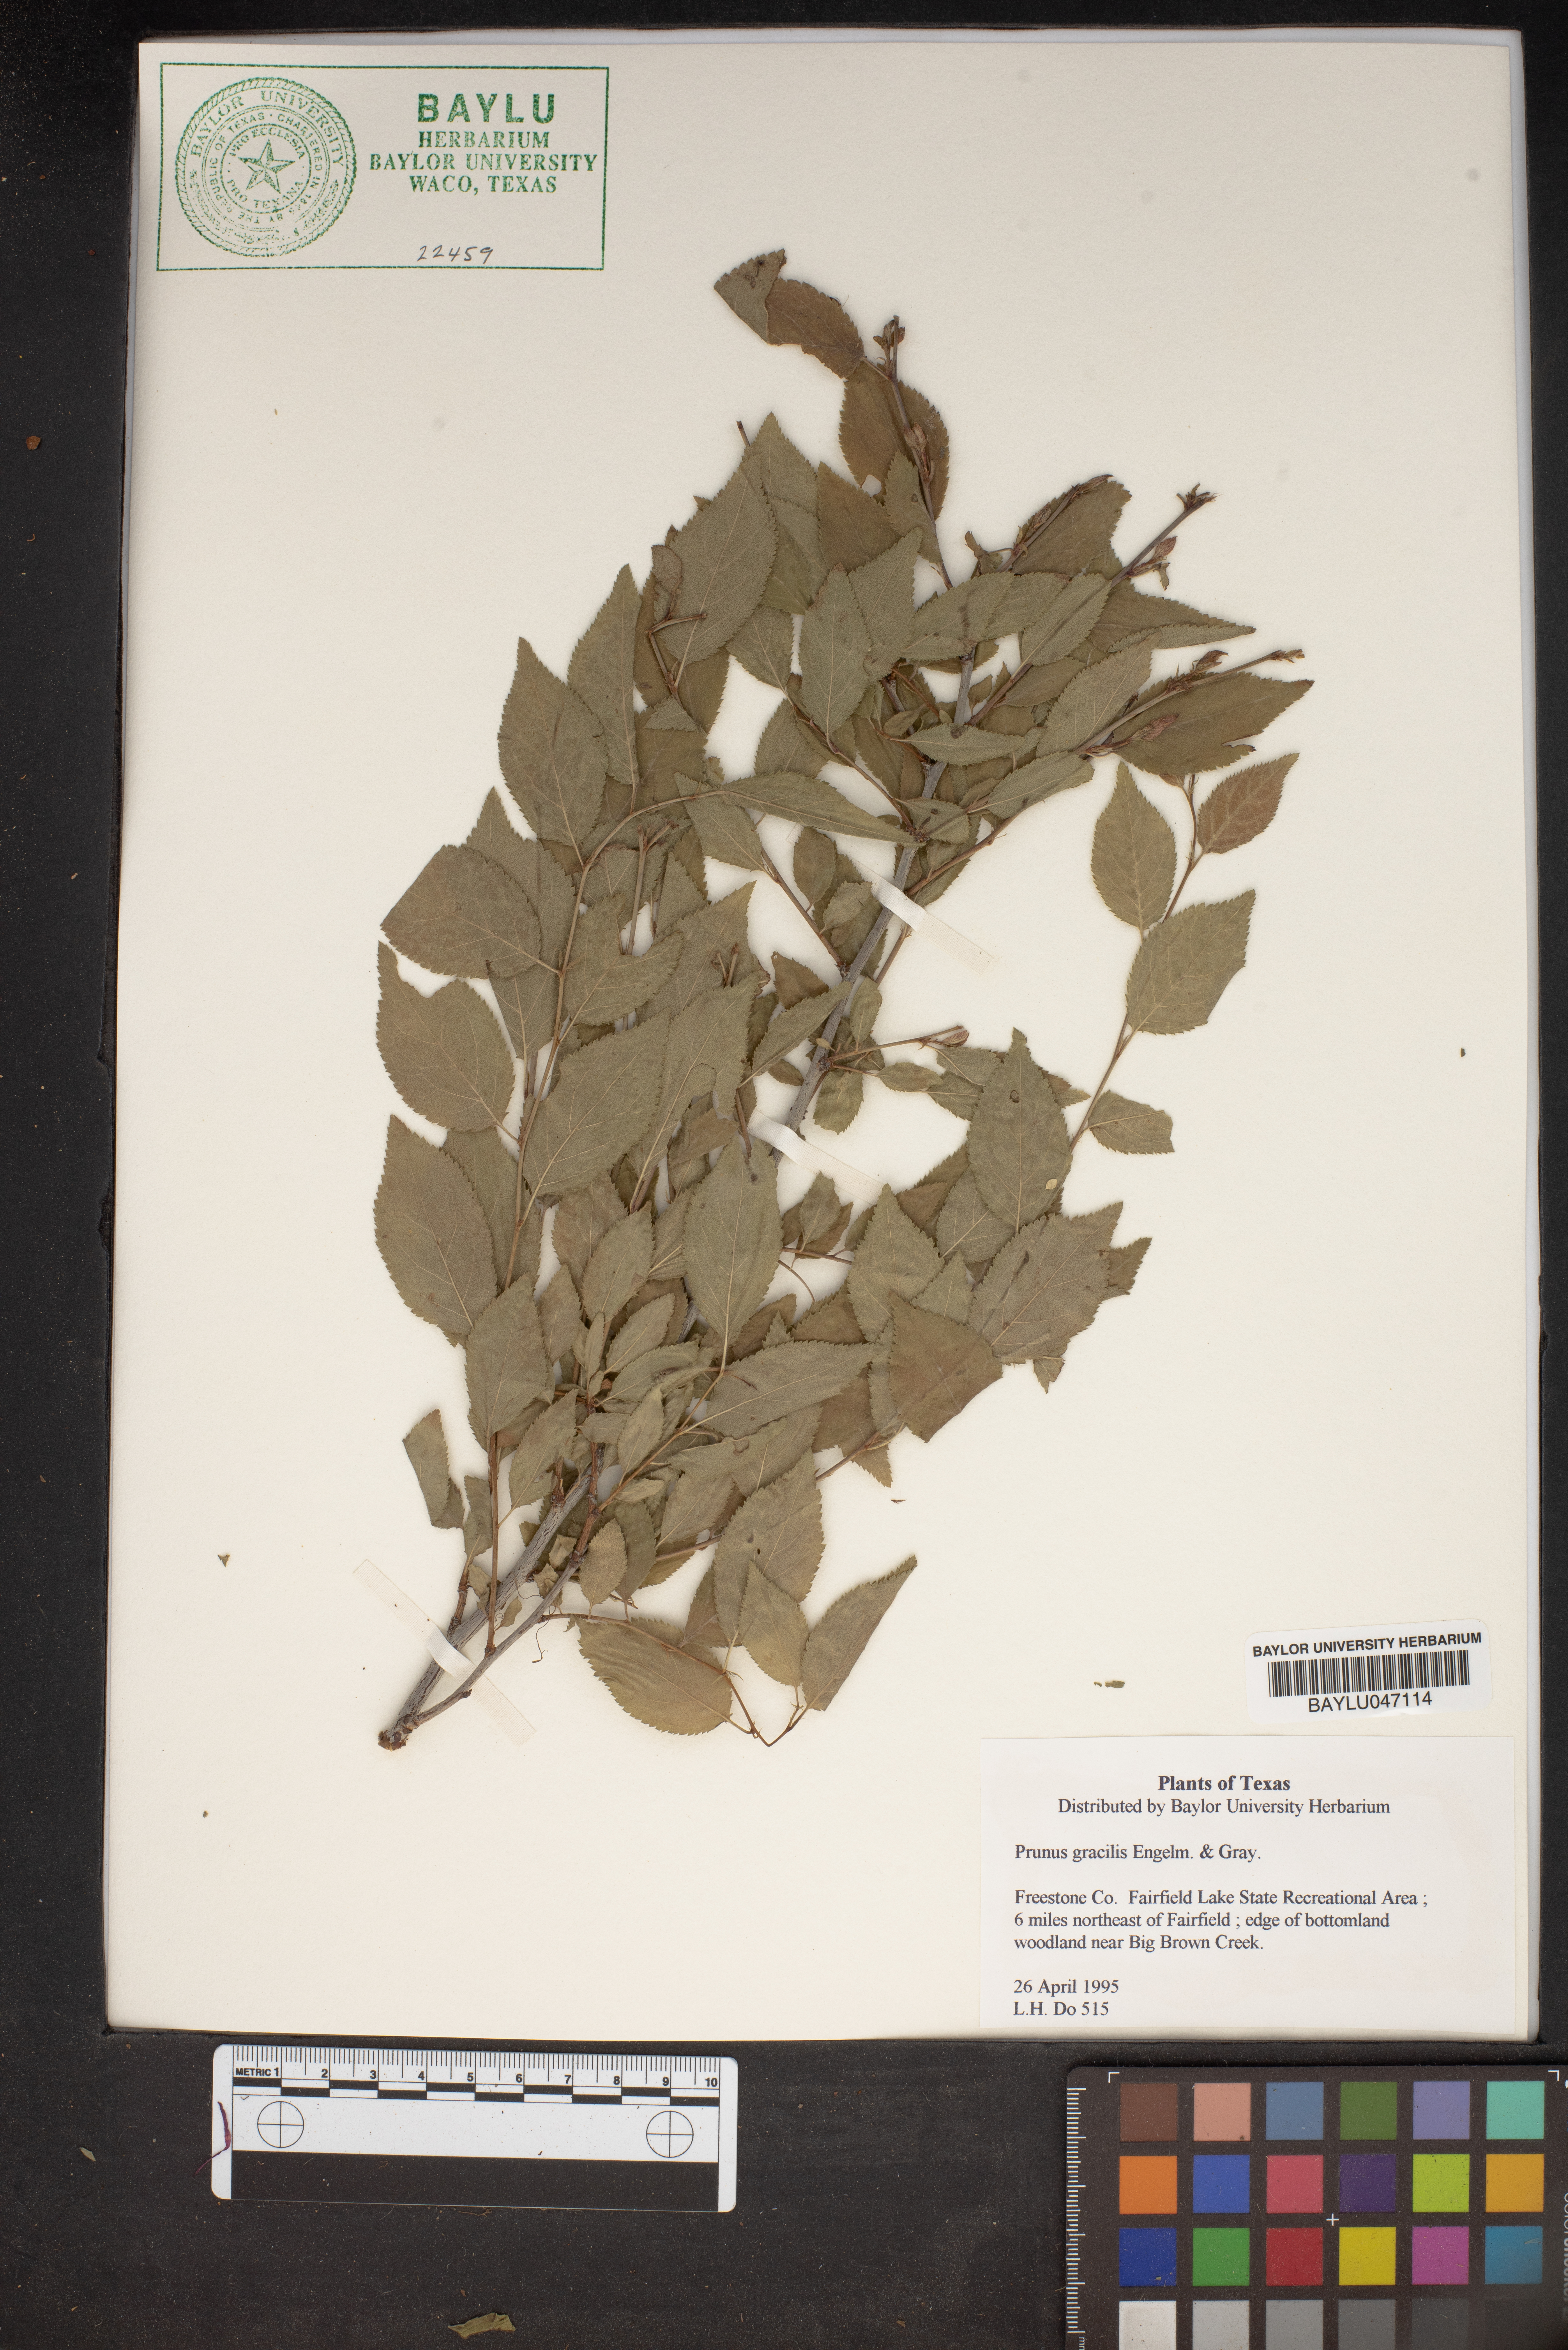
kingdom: Plantae
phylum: Tracheophyta
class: Magnoliopsida
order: Rosales
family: Rosaceae
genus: Prunus
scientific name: Prunus gracilis
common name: Oklahoma plum
